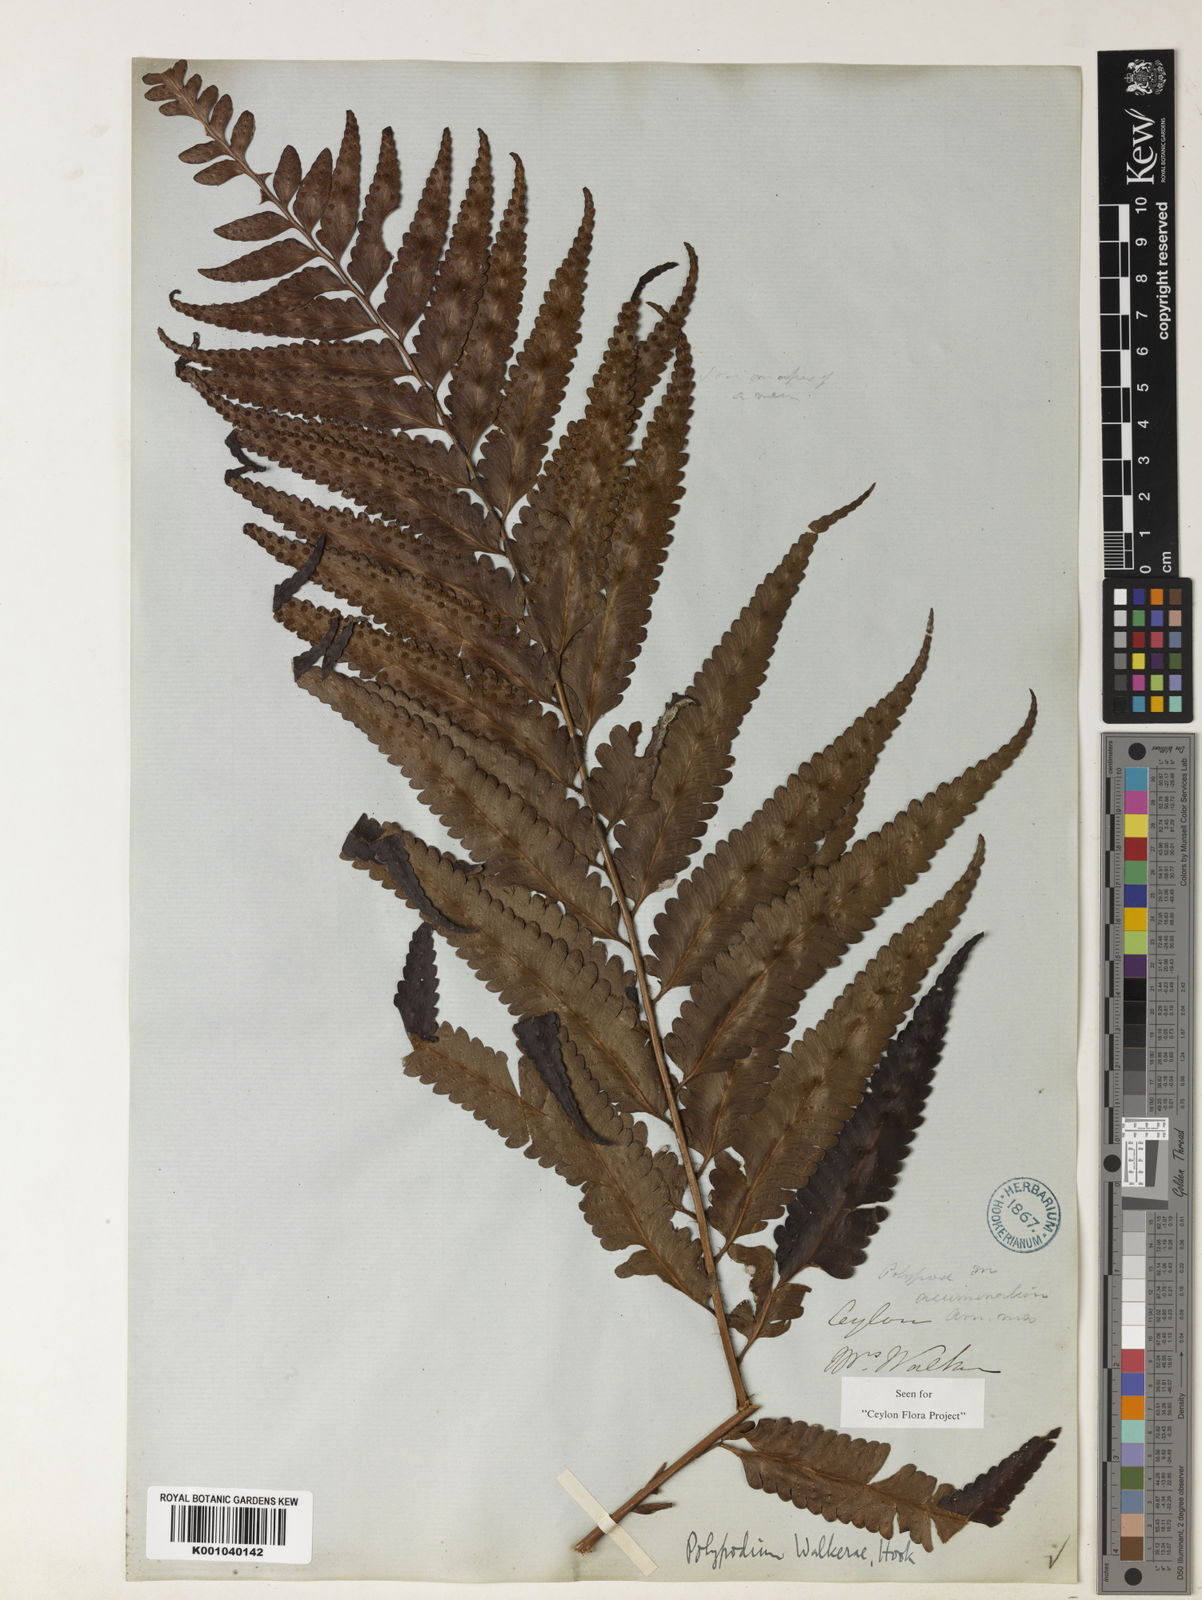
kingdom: Plantae
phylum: Tracheophyta
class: Polypodiopsida
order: Polypodiales
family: Dryopteridaceae
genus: Polystichum
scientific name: Polystichum walkerae
